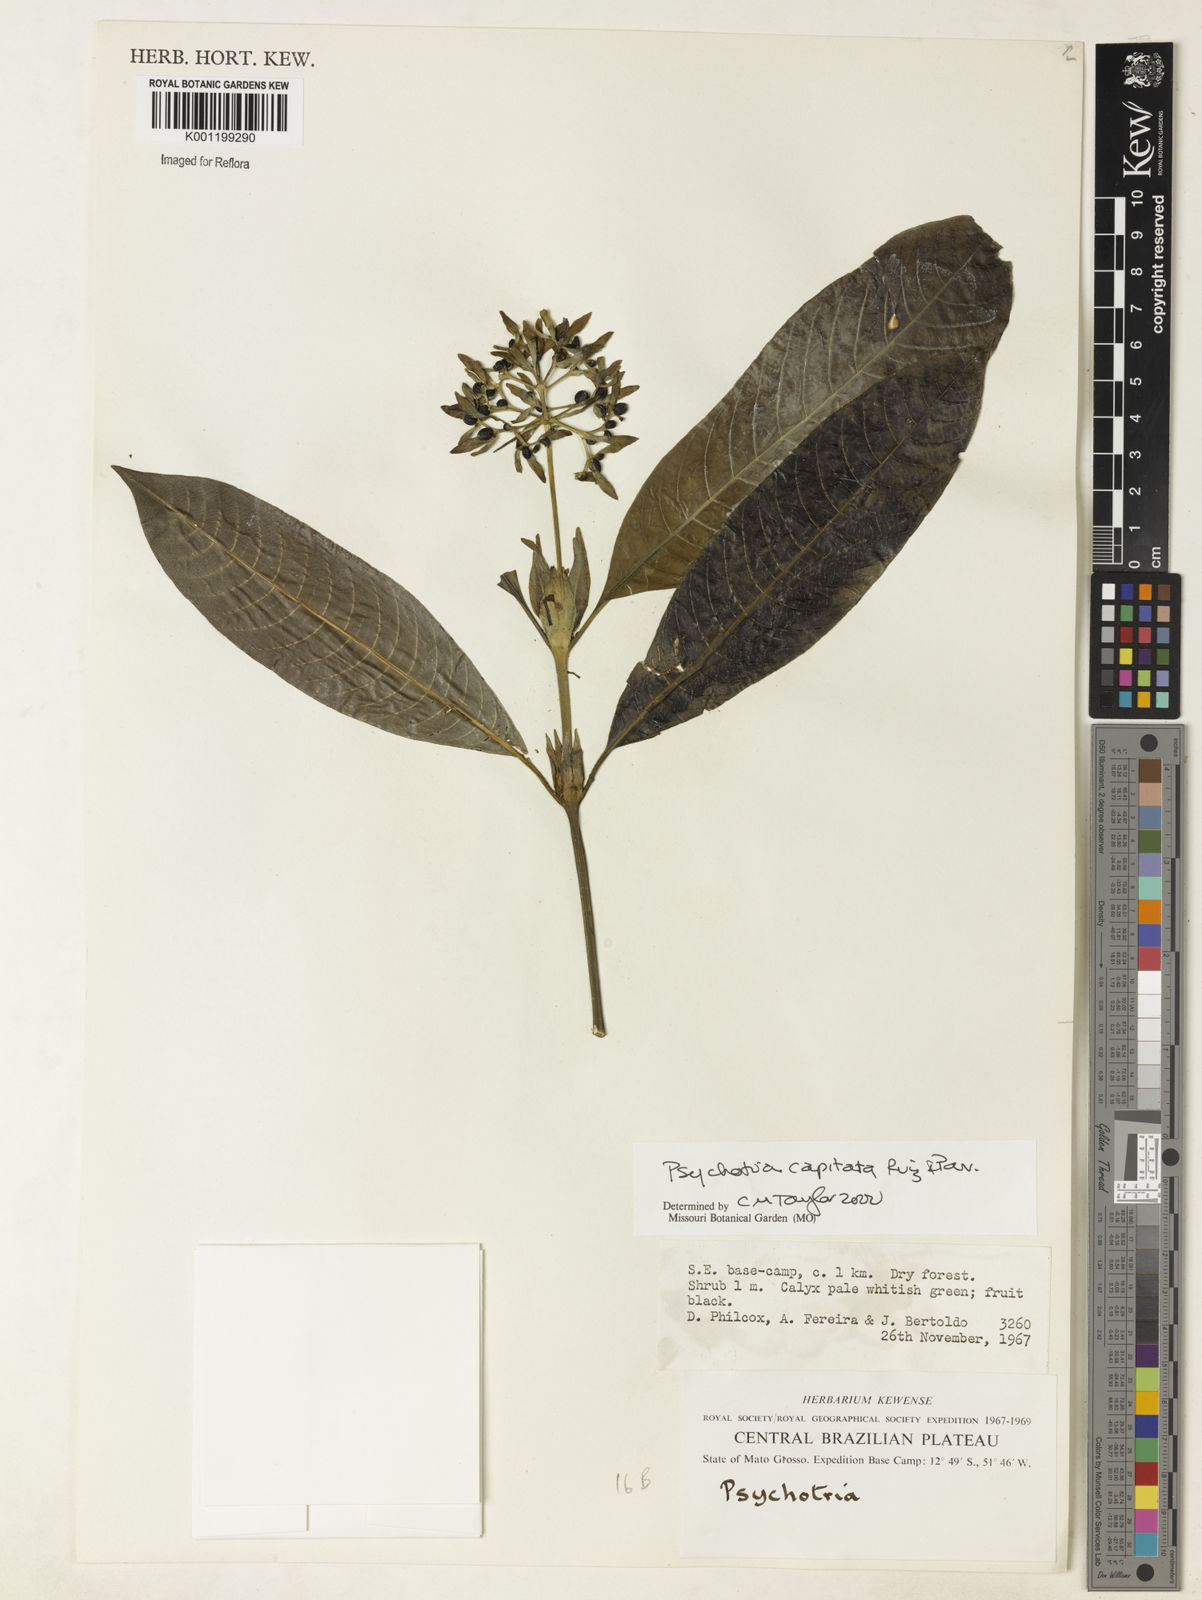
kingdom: Plantae
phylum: Tracheophyta
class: Magnoliopsida
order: Gentianales
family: Rubiaceae
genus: Palicourea
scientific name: Palicourea violacea
